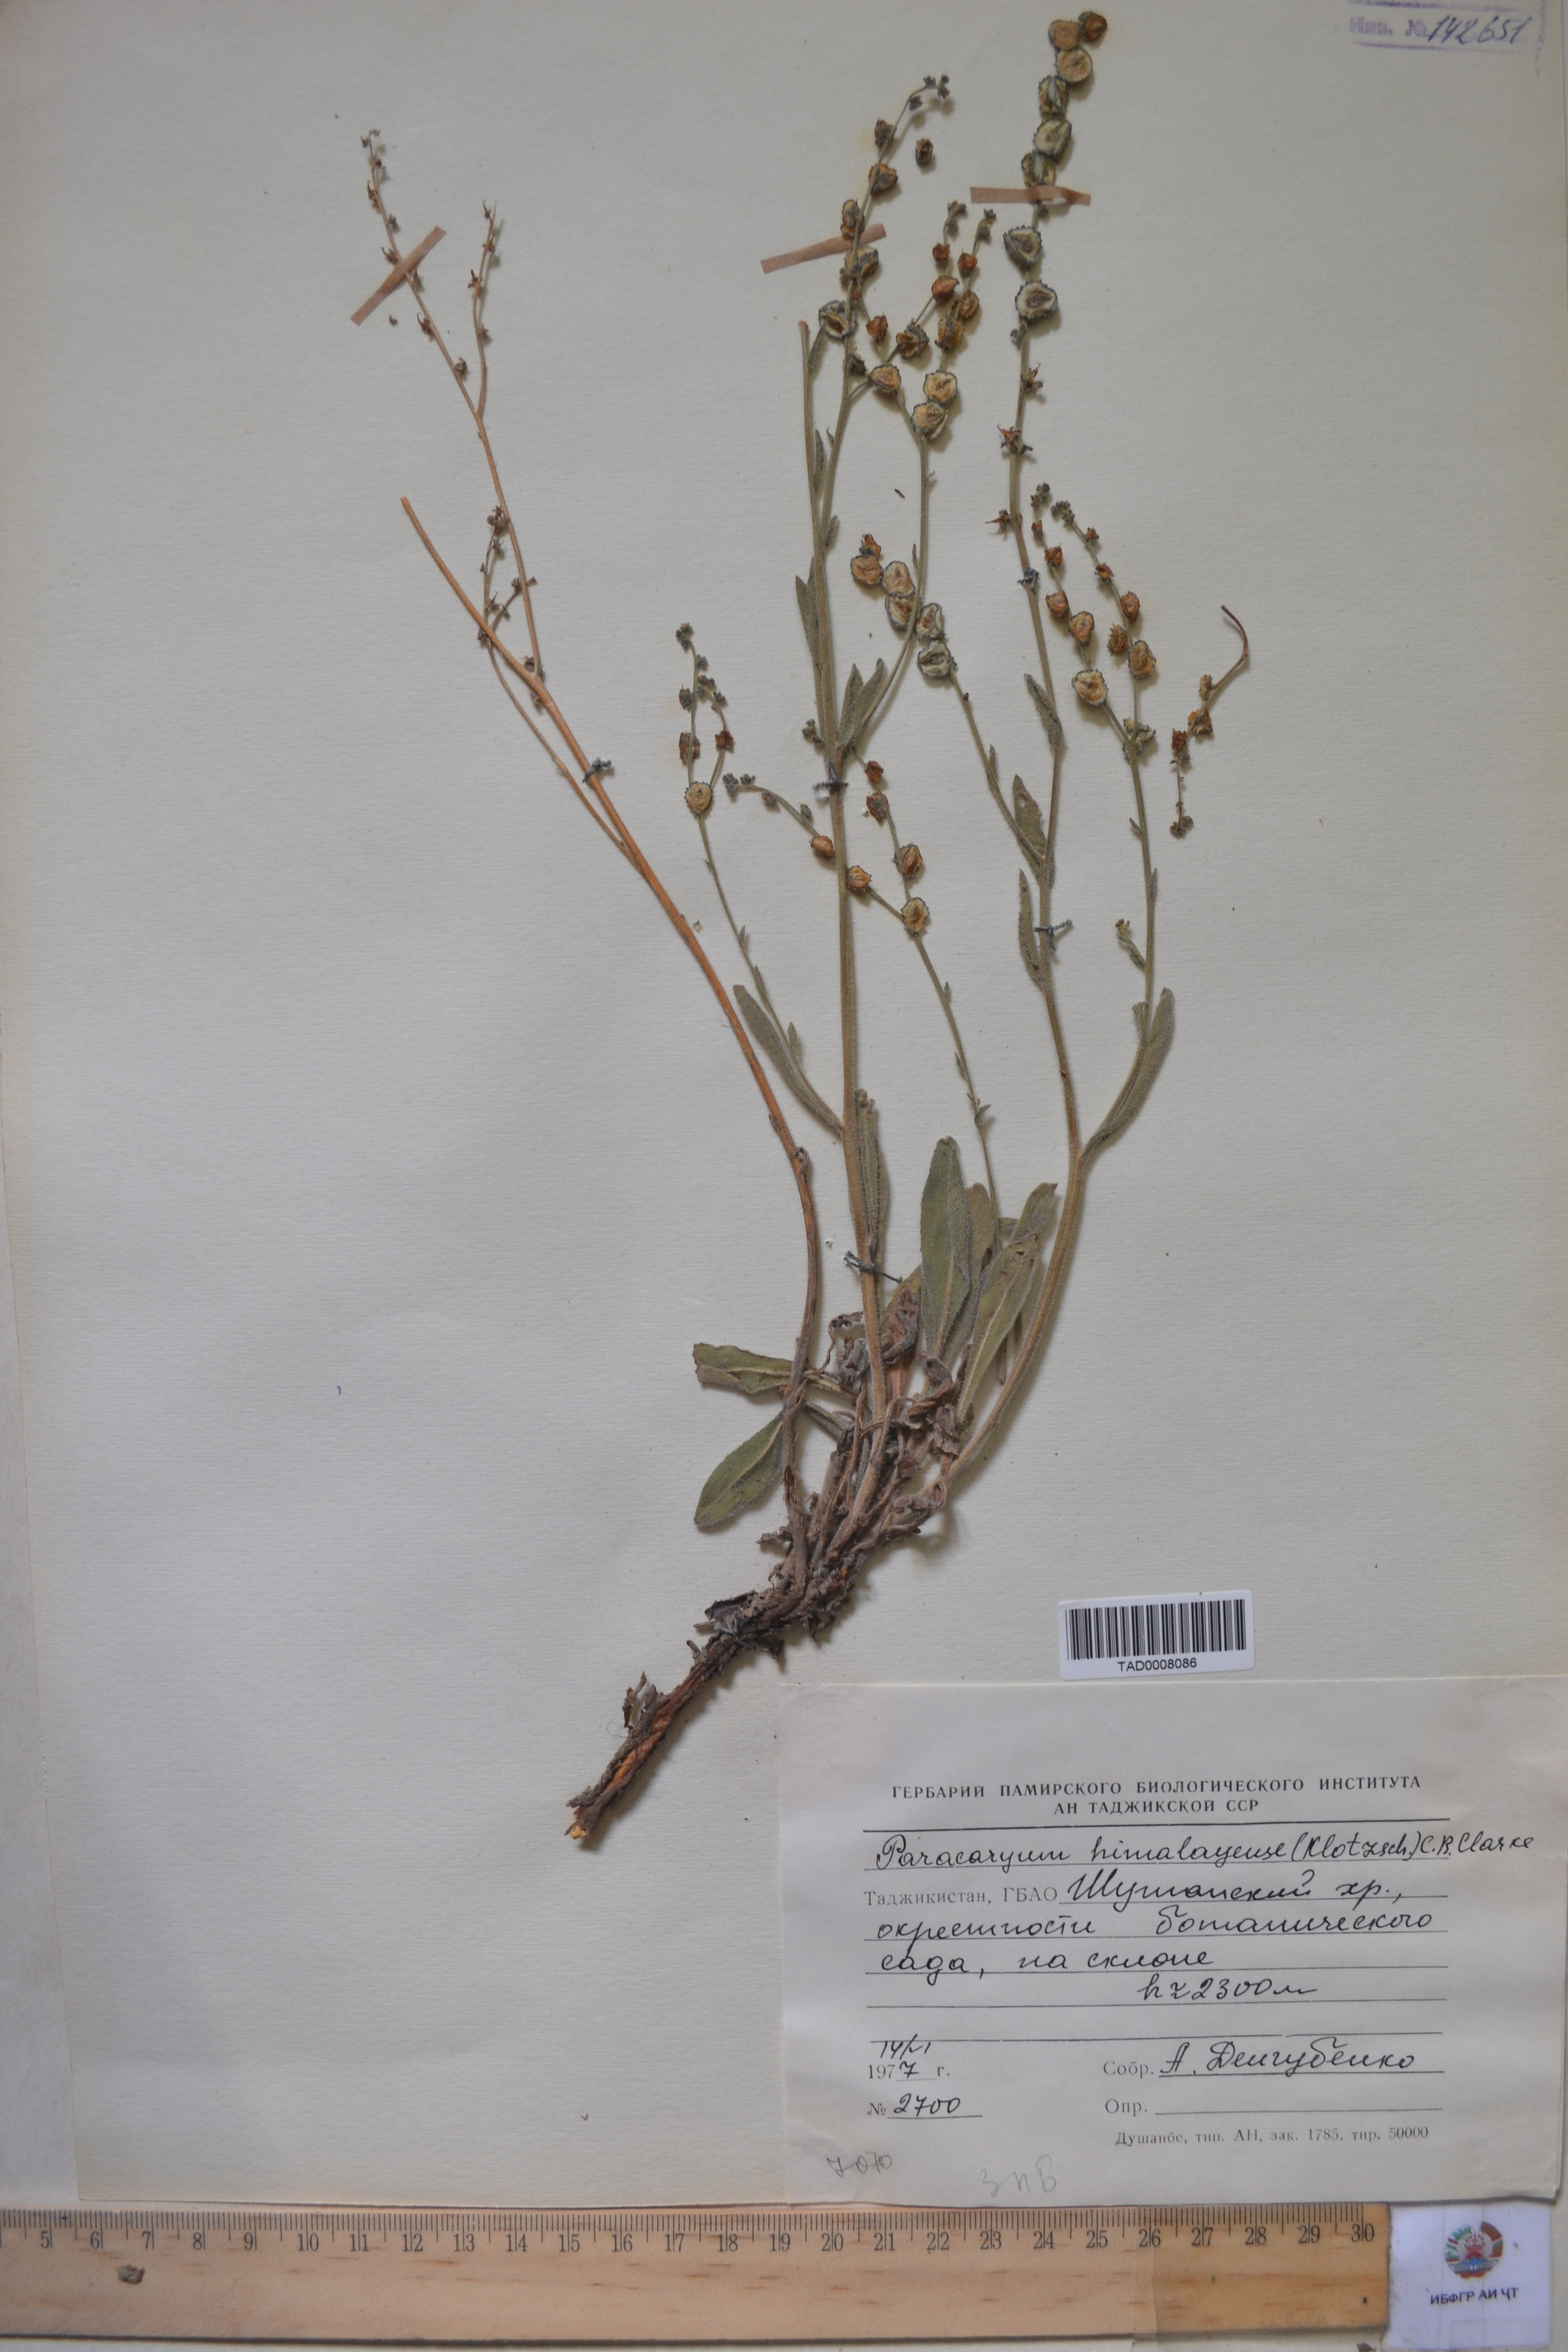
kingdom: Plantae
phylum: Tracheophyta
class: Magnoliopsida
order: Boraginales
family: Boraginaceae
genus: Paracaryum
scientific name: Paracaryum himalayense
